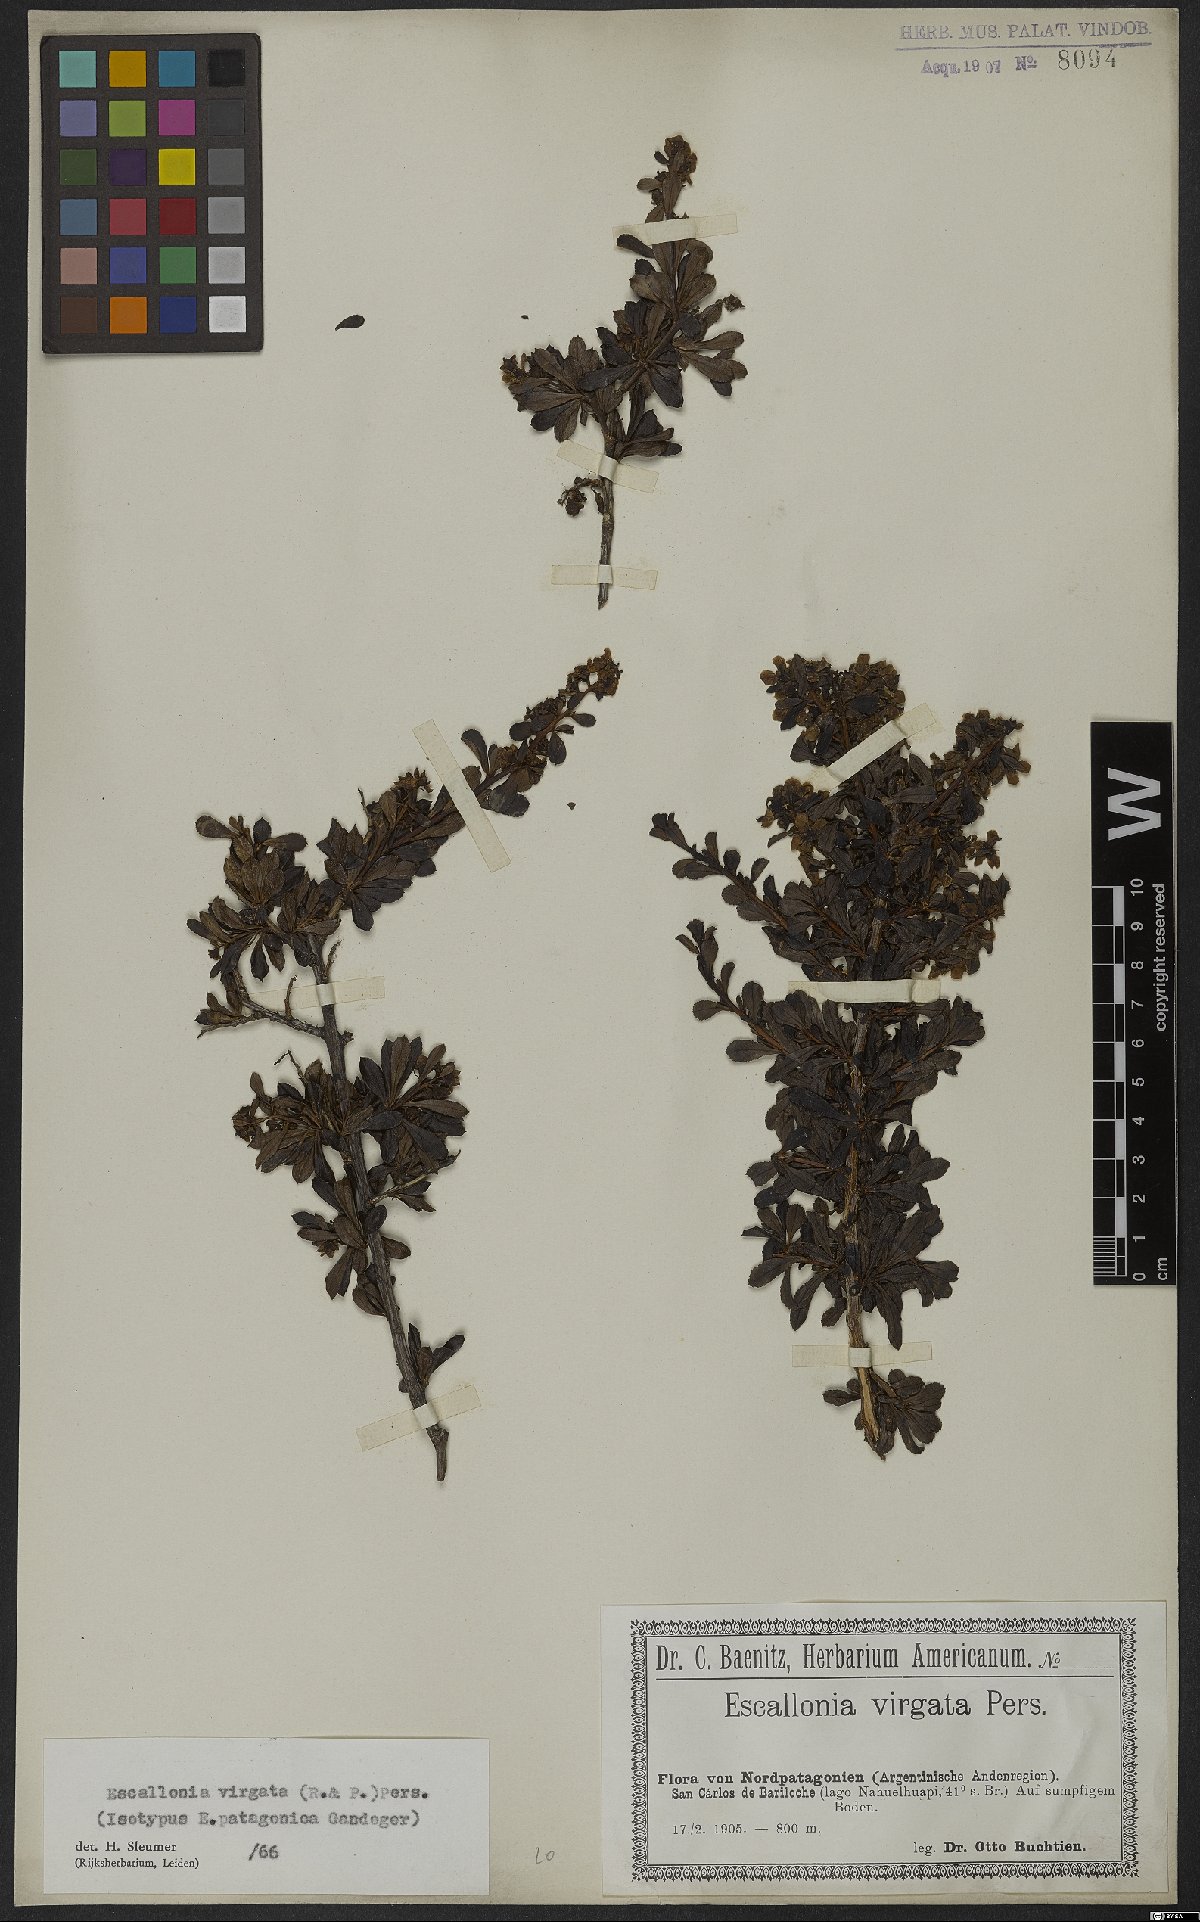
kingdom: Plantae
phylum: Tracheophyta
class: Magnoliopsida
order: Escalloniales
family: Escalloniaceae
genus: Escallonia
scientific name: Escallonia virgata
